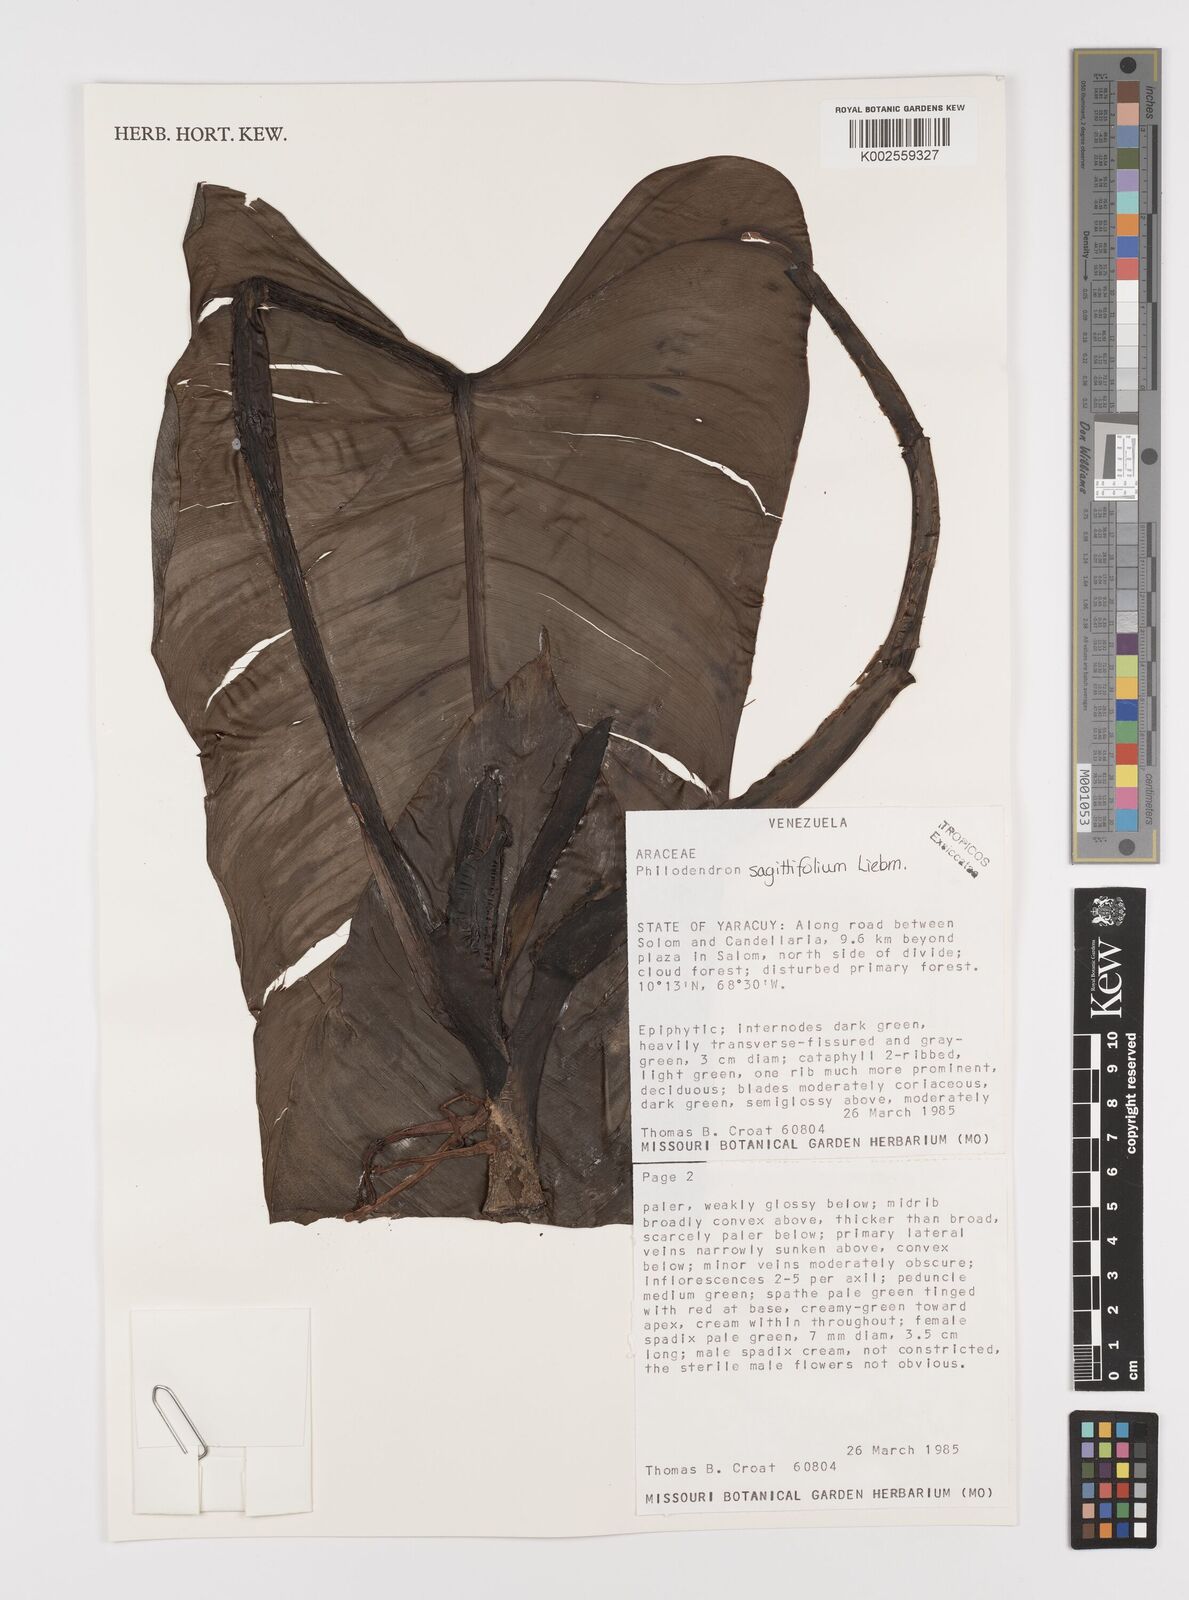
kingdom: Plantae
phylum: Tracheophyta
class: Liliopsida
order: Alismatales
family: Araceae
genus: Philodendron
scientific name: Philodendron sagittifolium
